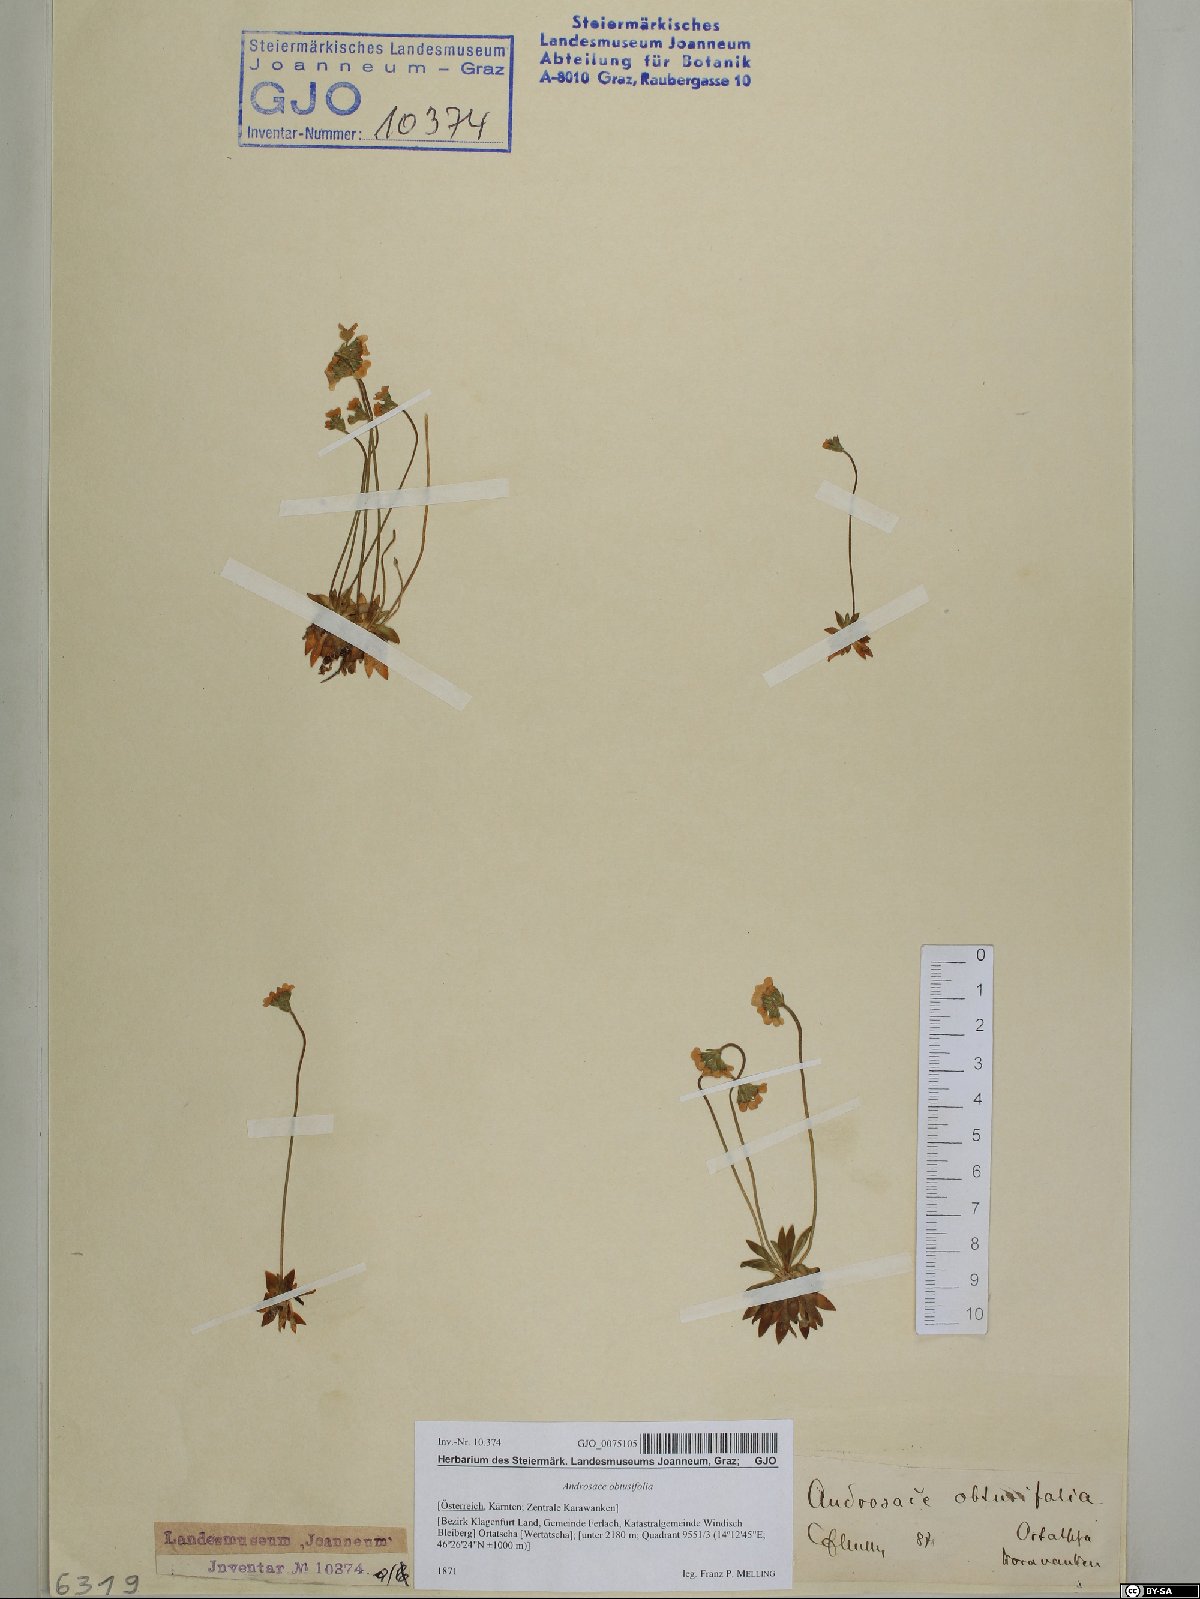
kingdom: Plantae
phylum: Tracheophyta
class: Magnoliopsida
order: Ericales
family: Primulaceae
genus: Androsace
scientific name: Androsace obtusifolia
